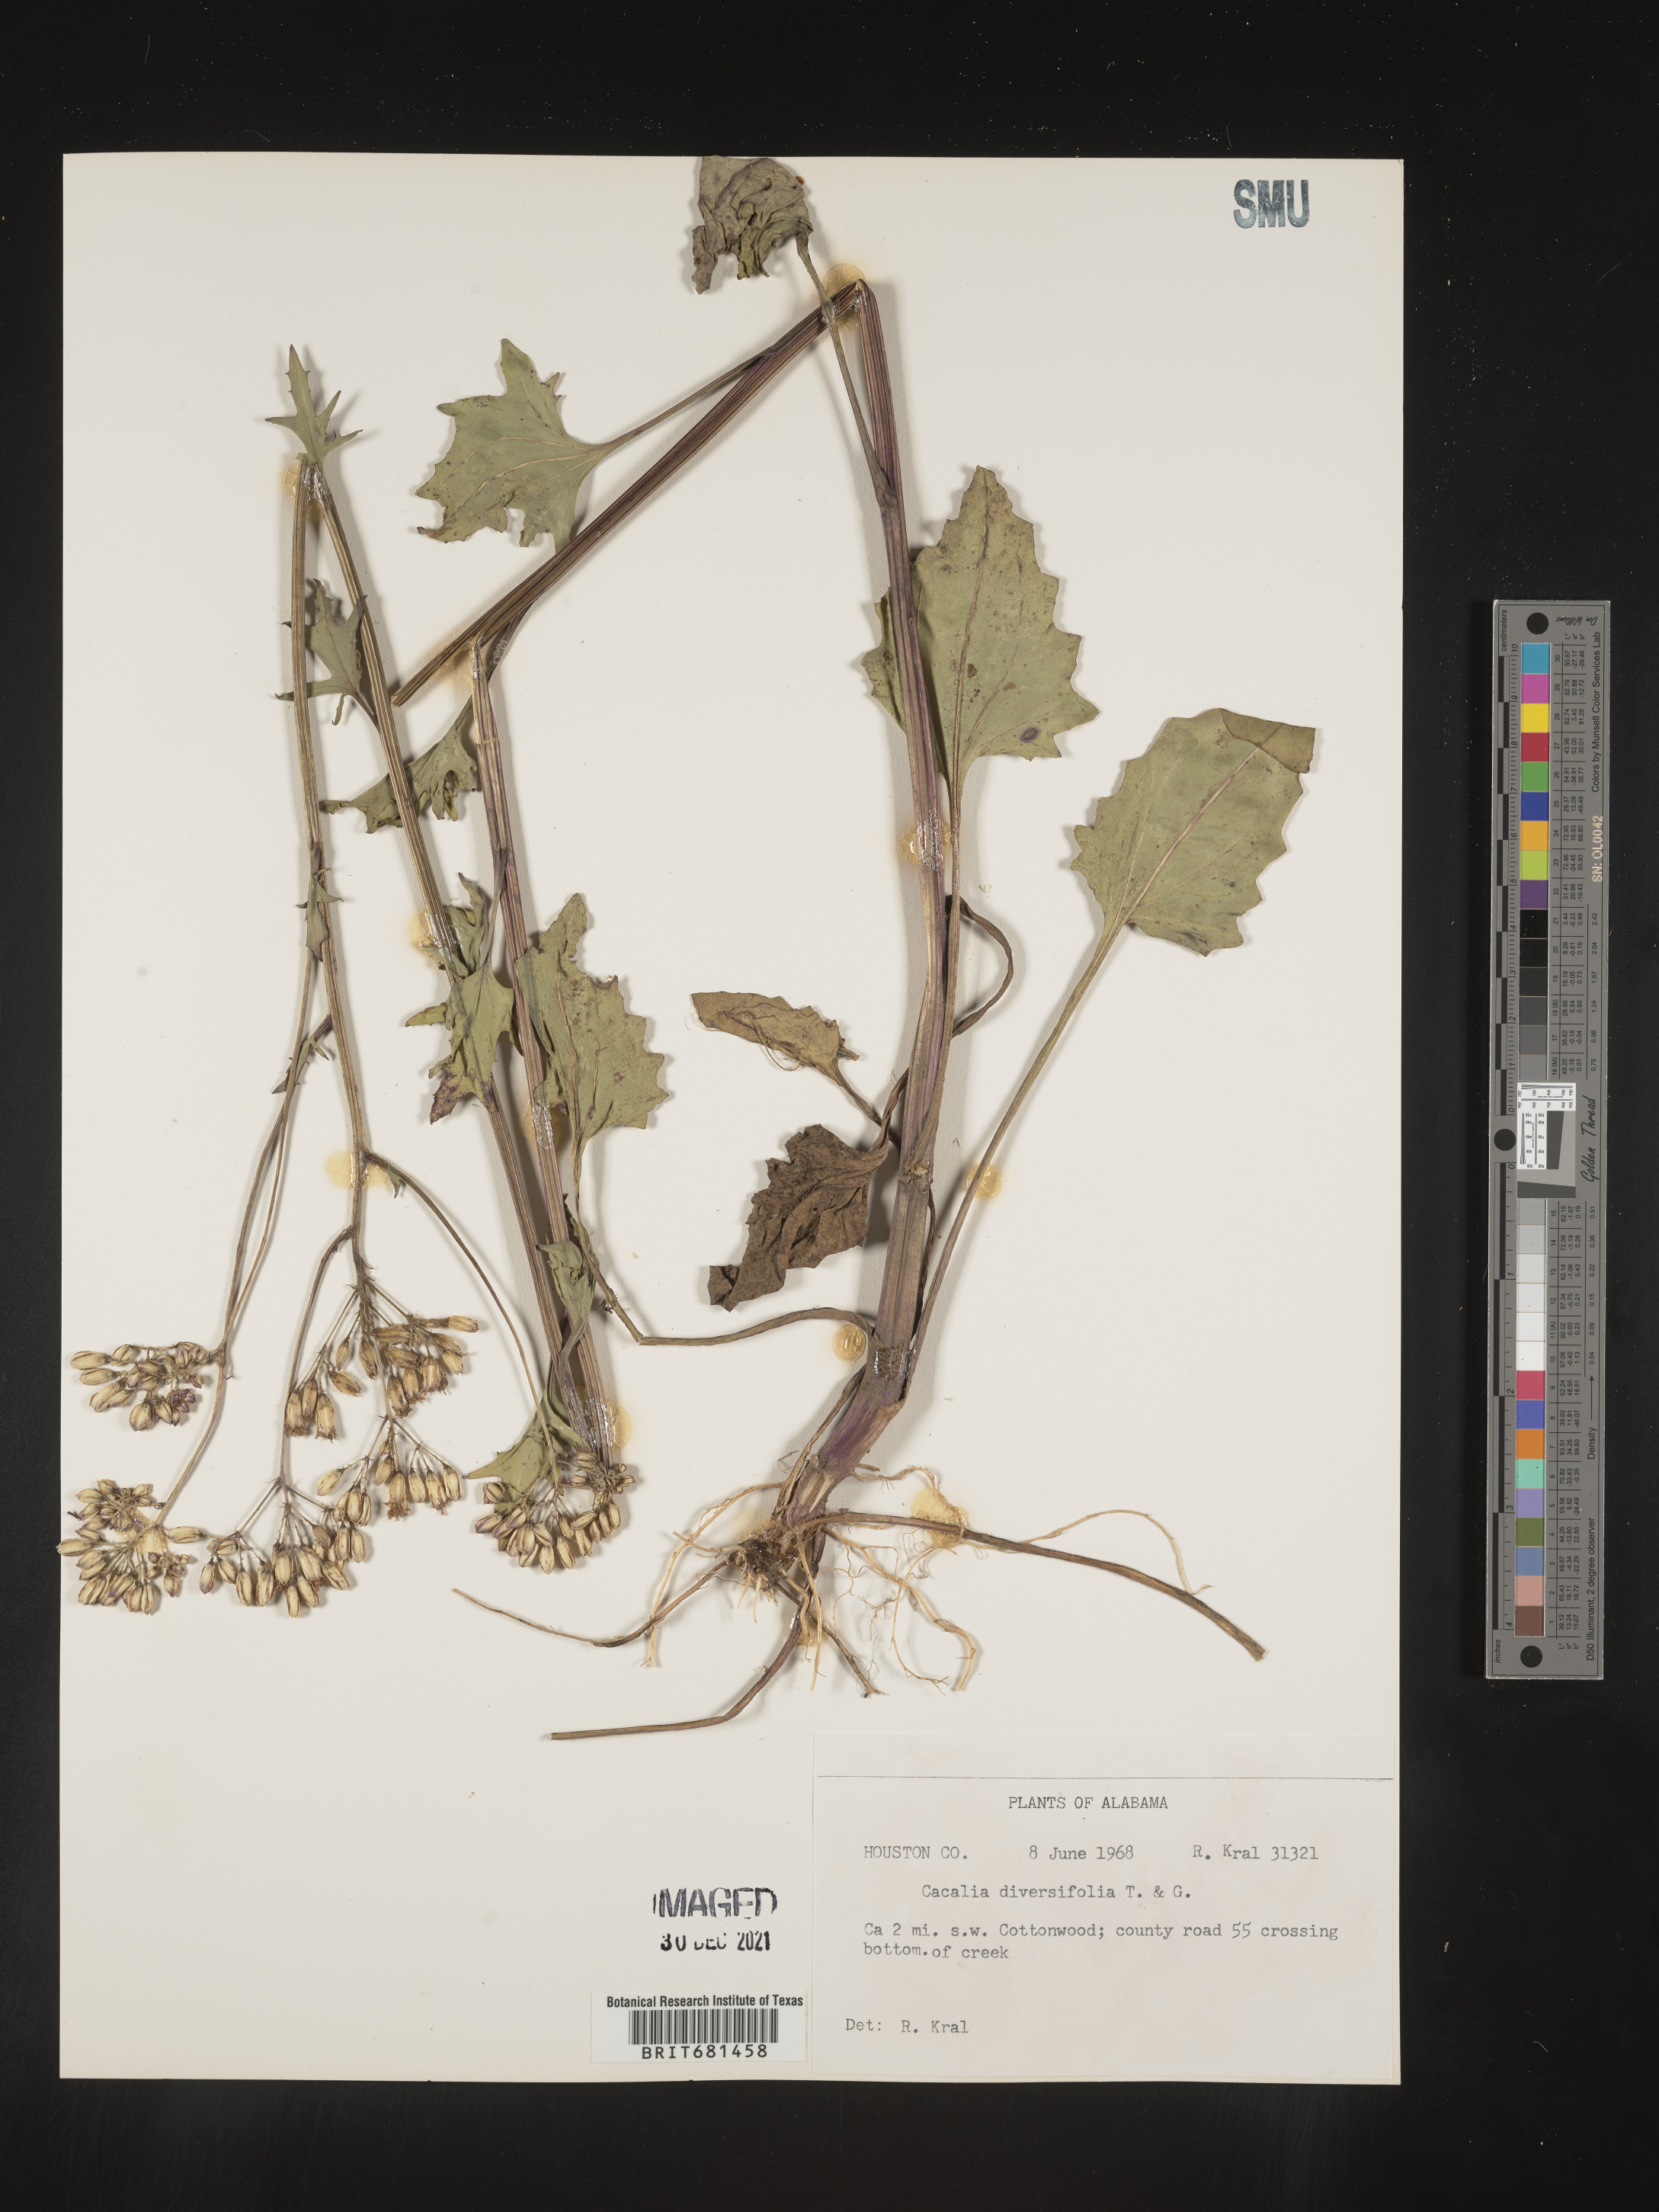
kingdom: Plantae
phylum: Tracheophyta
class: Magnoliopsida
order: Asterales
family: Asteraceae
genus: Arnoglossum
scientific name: Arnoglossum diversifolium
